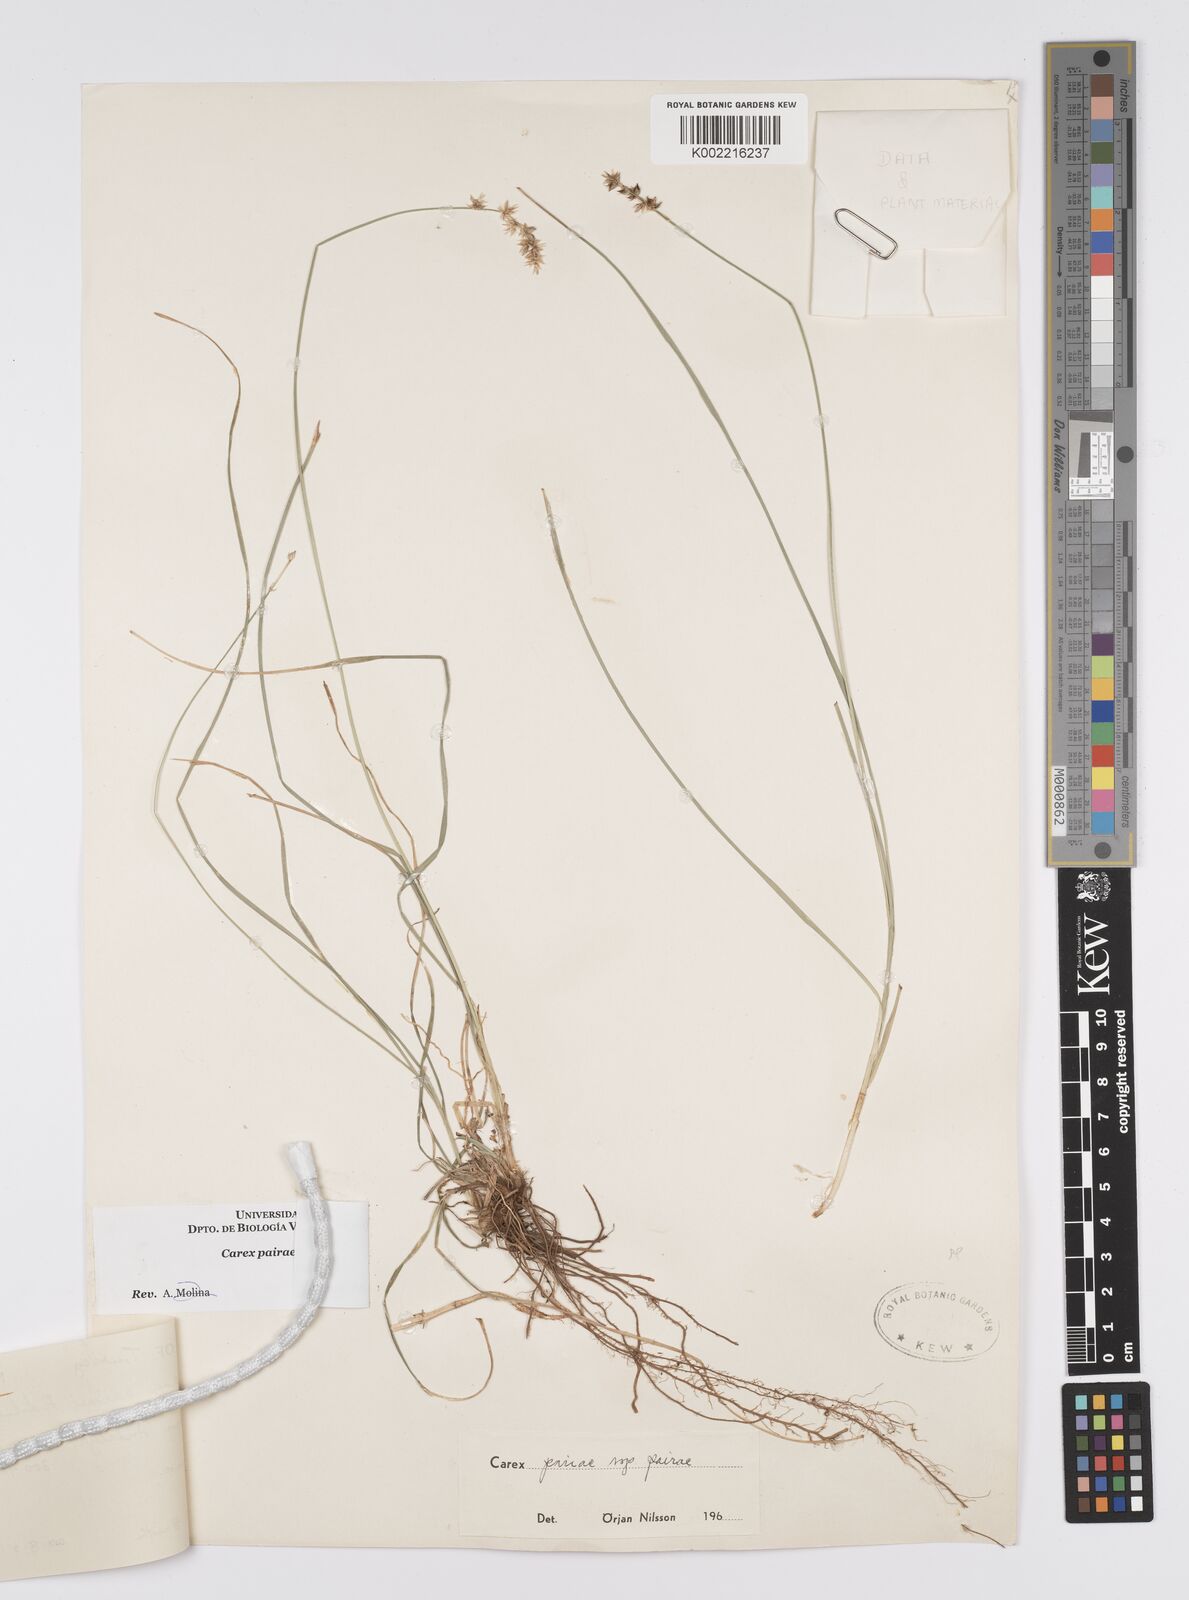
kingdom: Plantae
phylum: Tracheophyta
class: Liliopsida
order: Poales
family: Cyperaceae
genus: Carex
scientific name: Carex muricata
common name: Rough sedge
